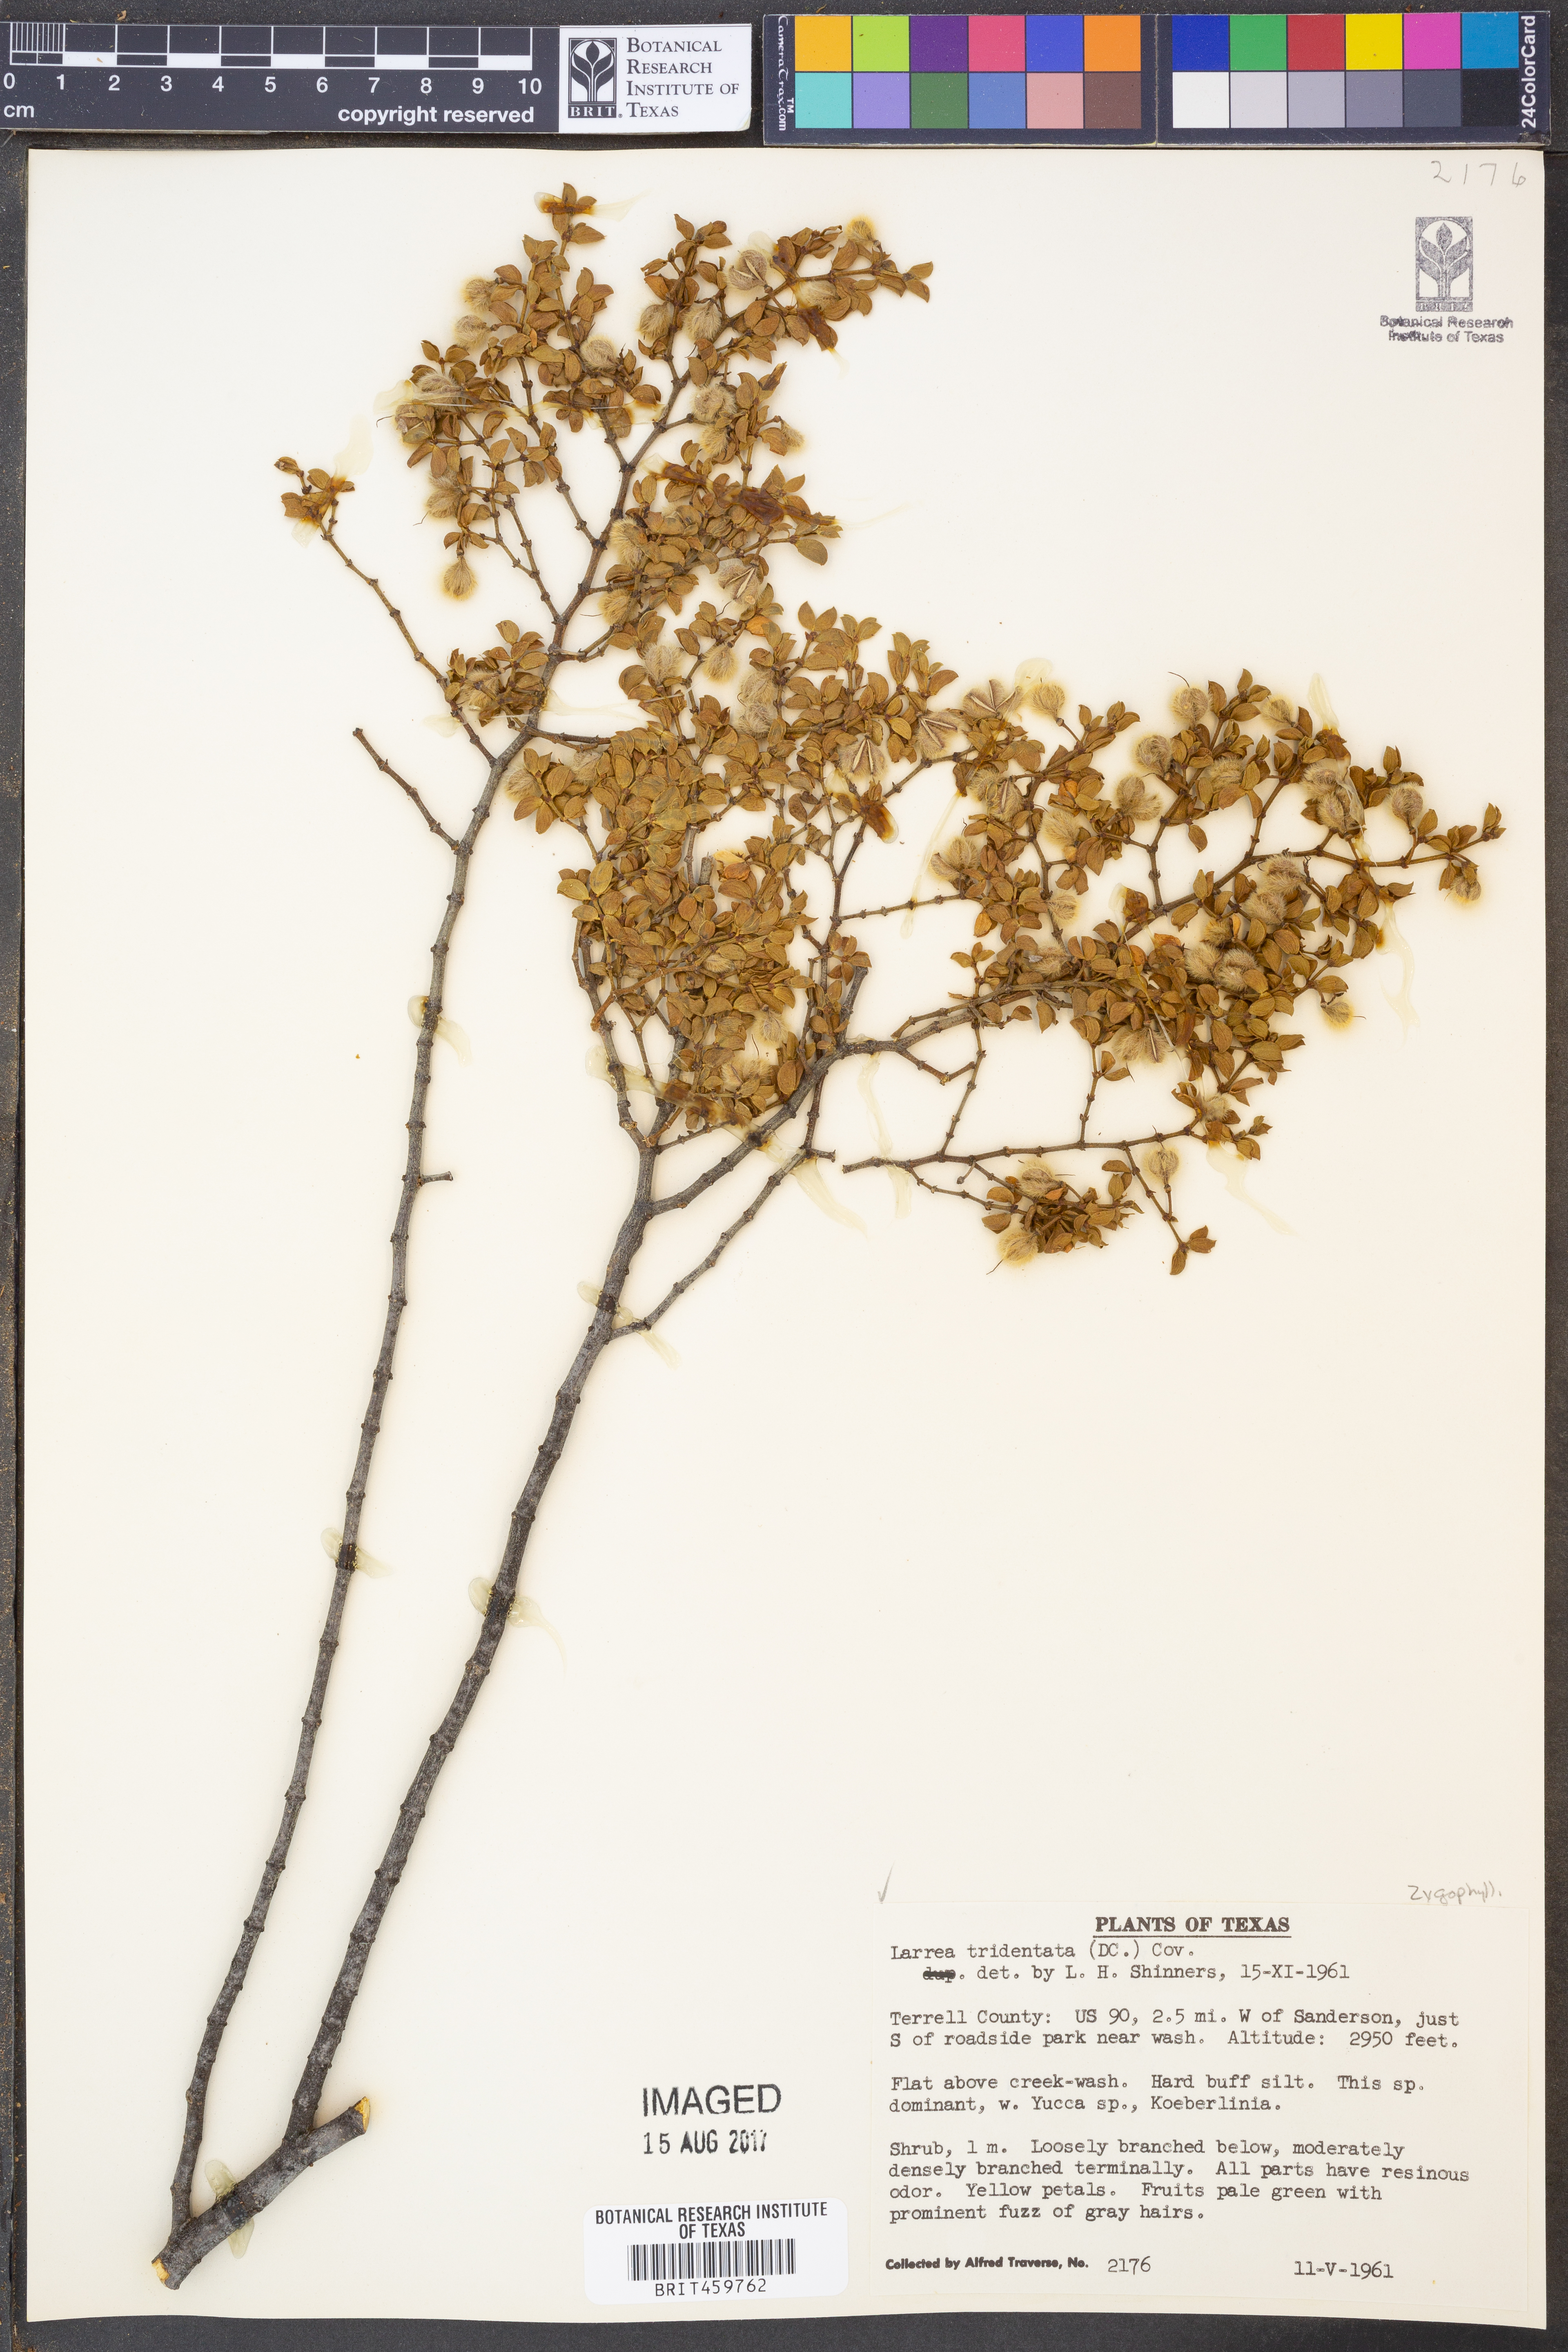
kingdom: Plantae
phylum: Tracheophyta
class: Magnoliopsida
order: Zygophyllales
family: Zygophyllaceae
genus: Larrea
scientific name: Larrea tridentata
